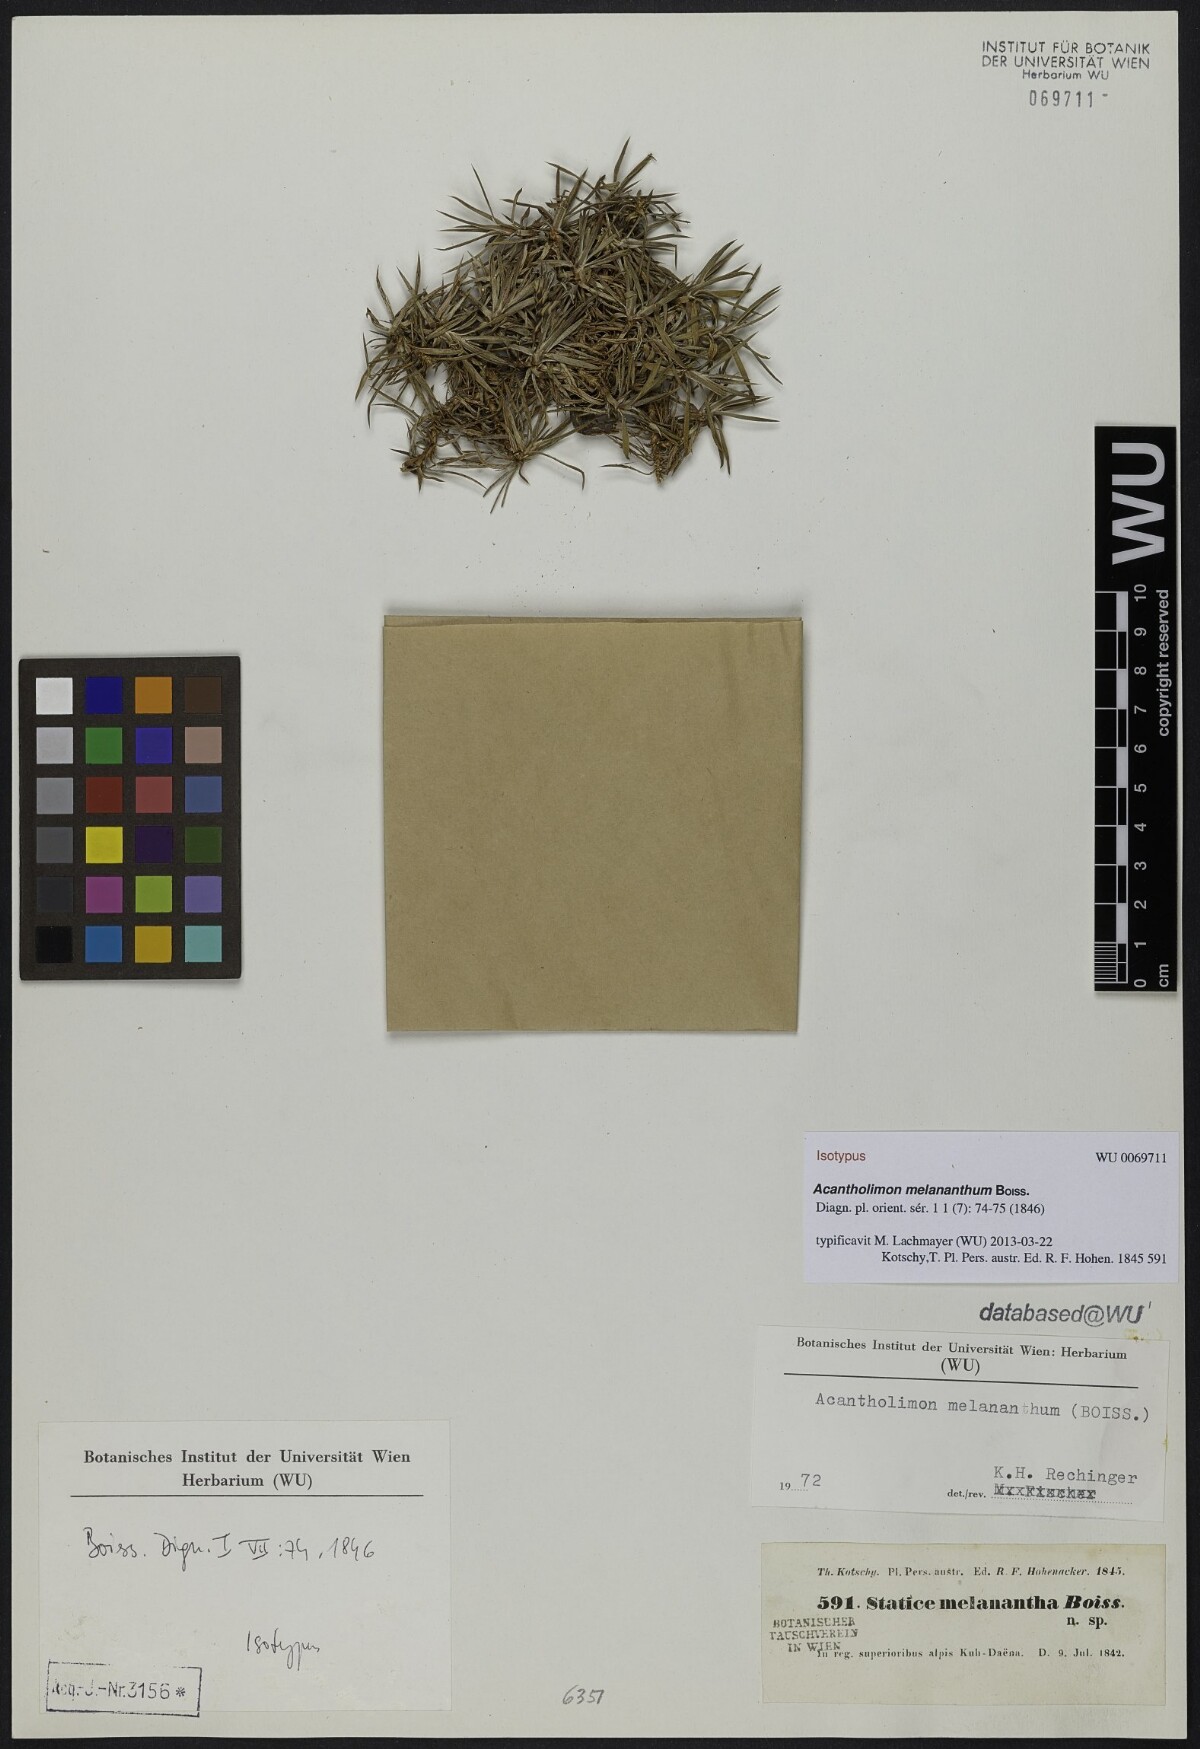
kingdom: Plantae
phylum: Tracheophyta
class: Magnoliopsida
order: Caryophyllales
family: Plumbaginaceae
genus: Acantholimon
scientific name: Acantholimon melananthum
